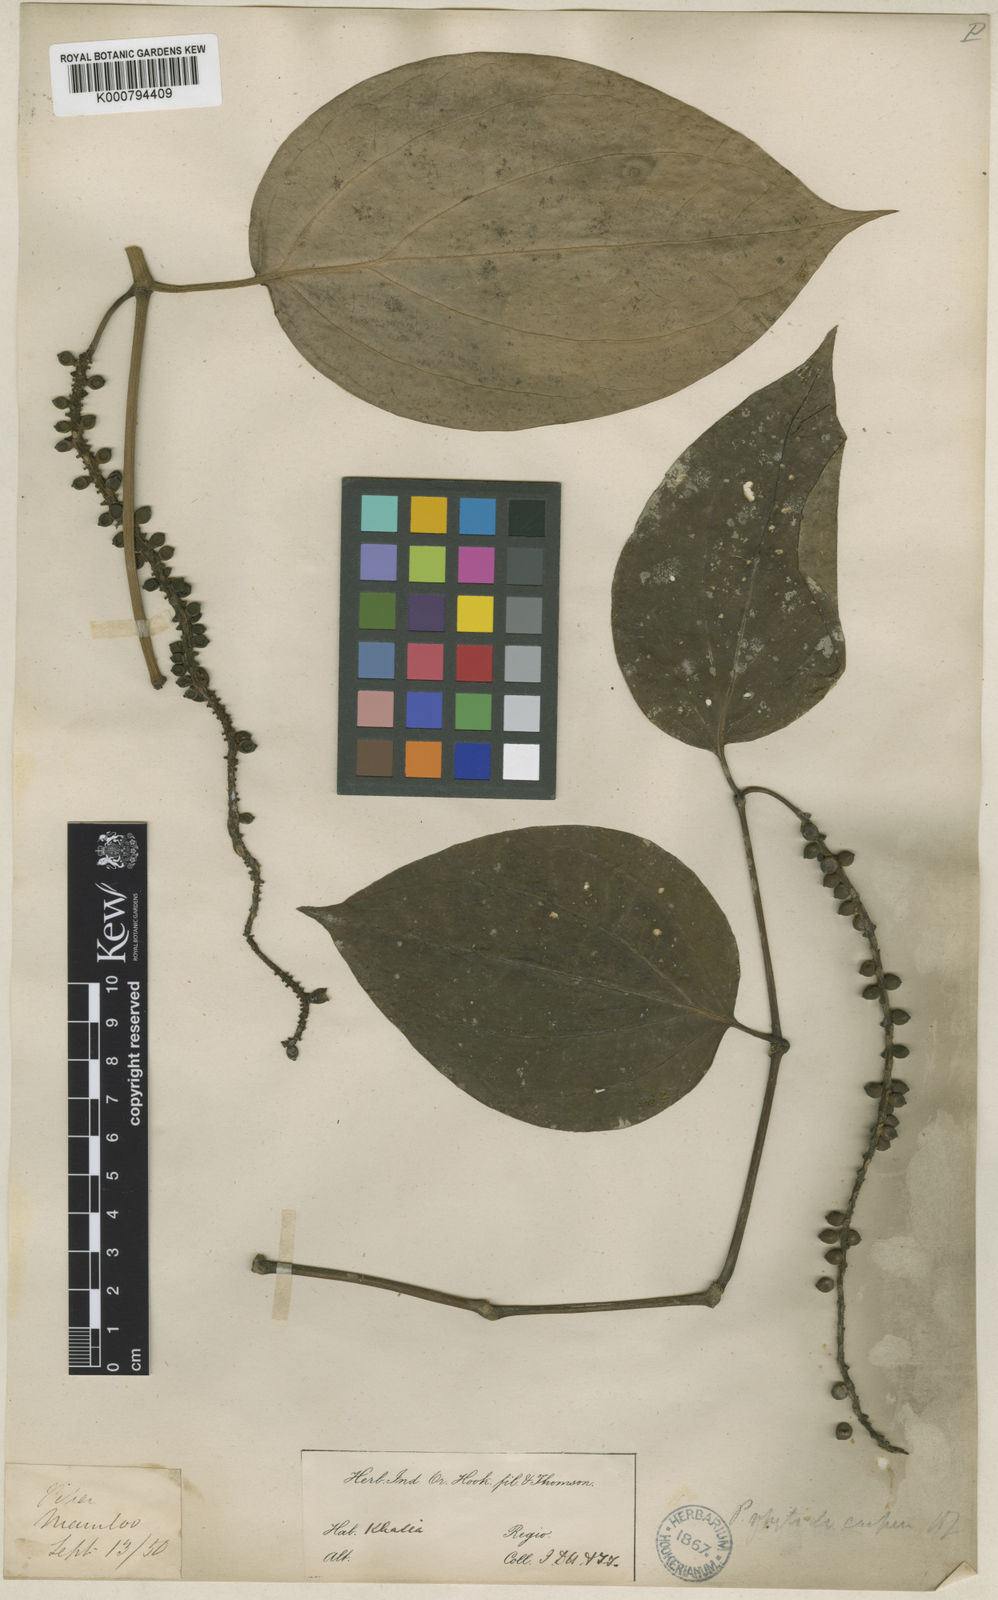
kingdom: Plantae
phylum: Tracheophyta
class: Magnoliopsida
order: Piperales
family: Piperaceae
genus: Piper
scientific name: Piper leptostachyum
